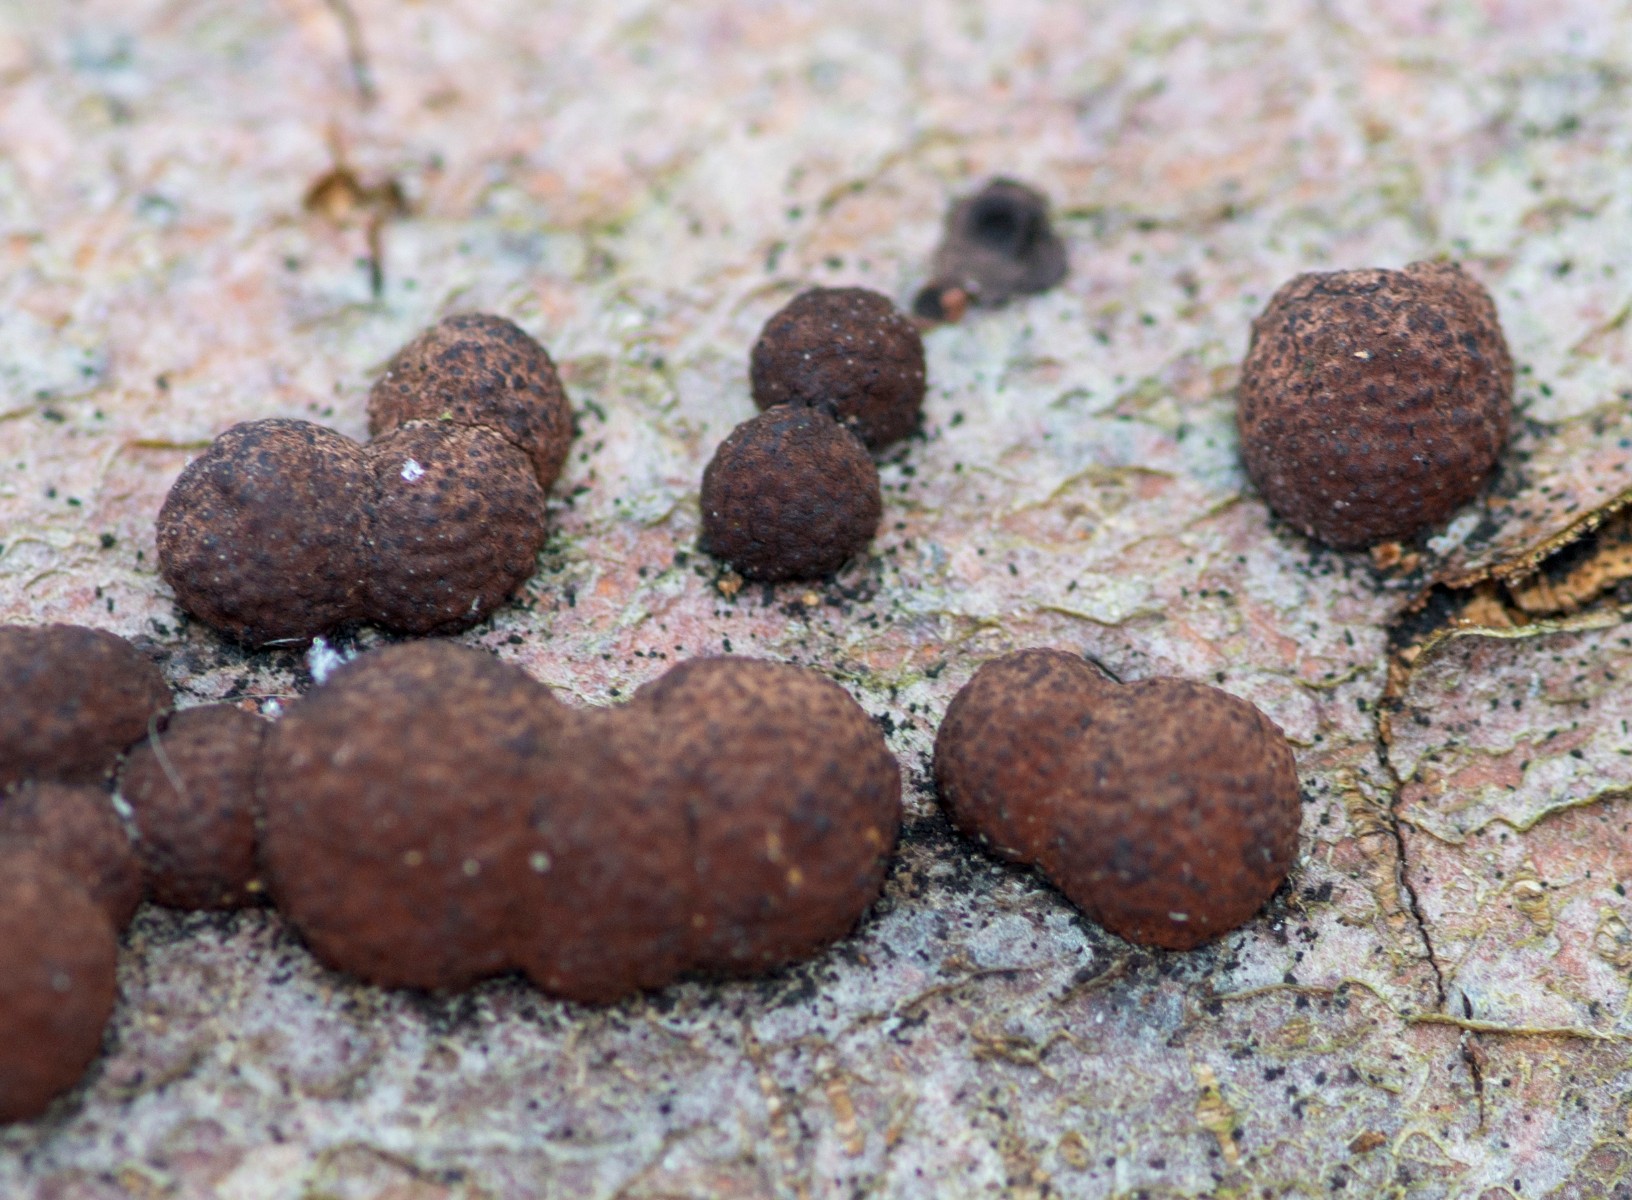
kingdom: Fungi
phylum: Ascomycota
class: Sordariomycetes
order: Xylariales
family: Hypoxylaceae
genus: Hypoxylon
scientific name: Hypoxylon fragiforme
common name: kuljordbær
